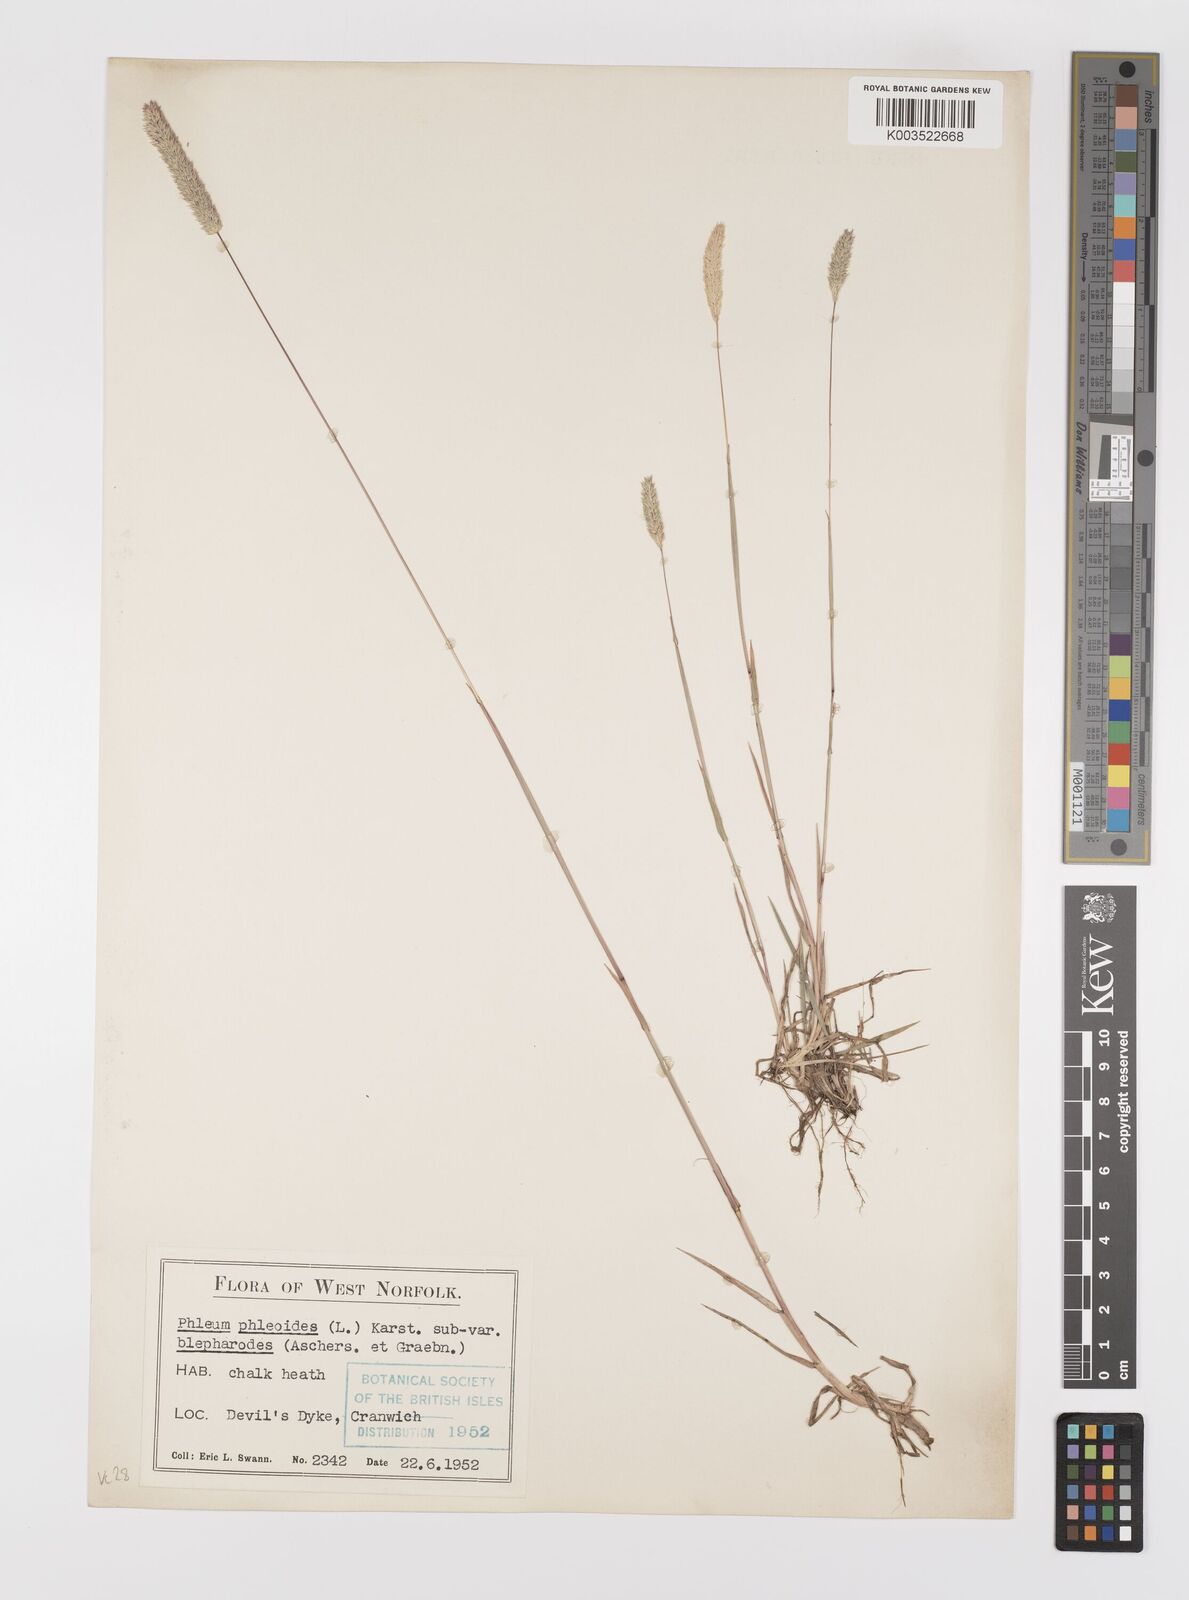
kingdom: Plantae
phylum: Tracheophyta
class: Liliopsida
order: Poales
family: Poaceae
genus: Phleum
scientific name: Phleum phleoides
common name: Purple-stem cat's-tail
